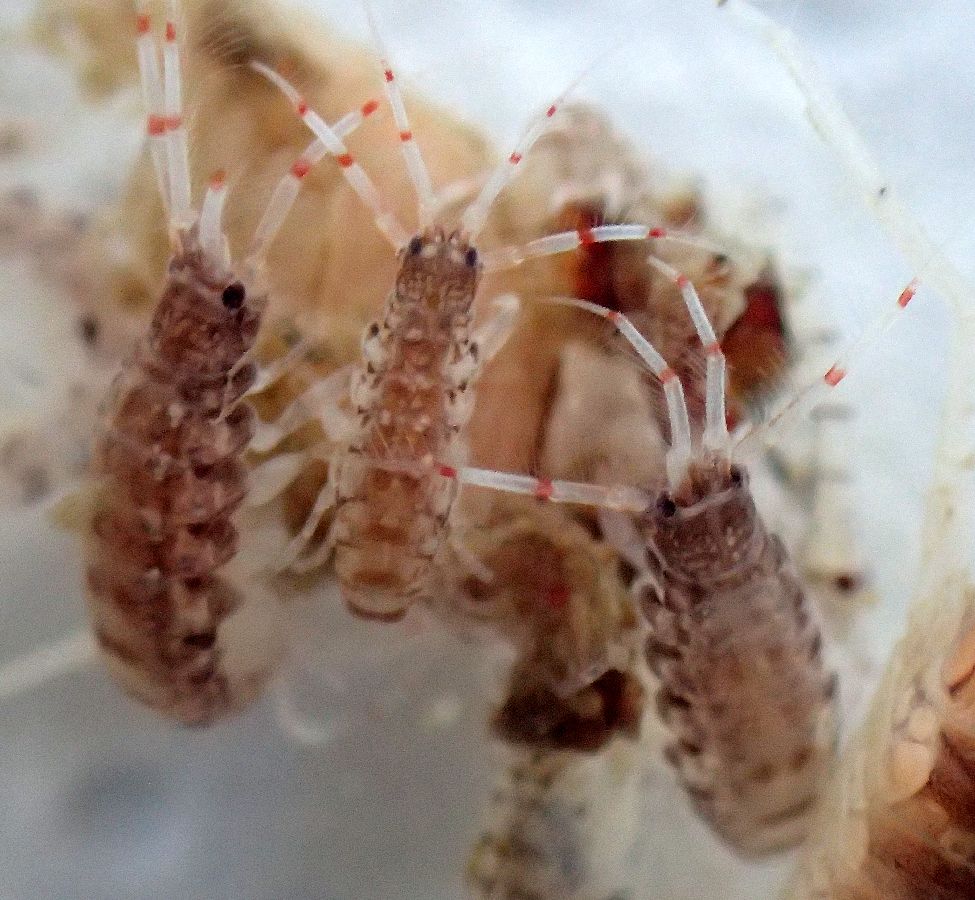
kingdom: Animalia
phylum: Arthropoda
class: Malacostraca
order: Amphipoda
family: Ischyroceridae
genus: Ericthonius
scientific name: Ericthonius megalops
